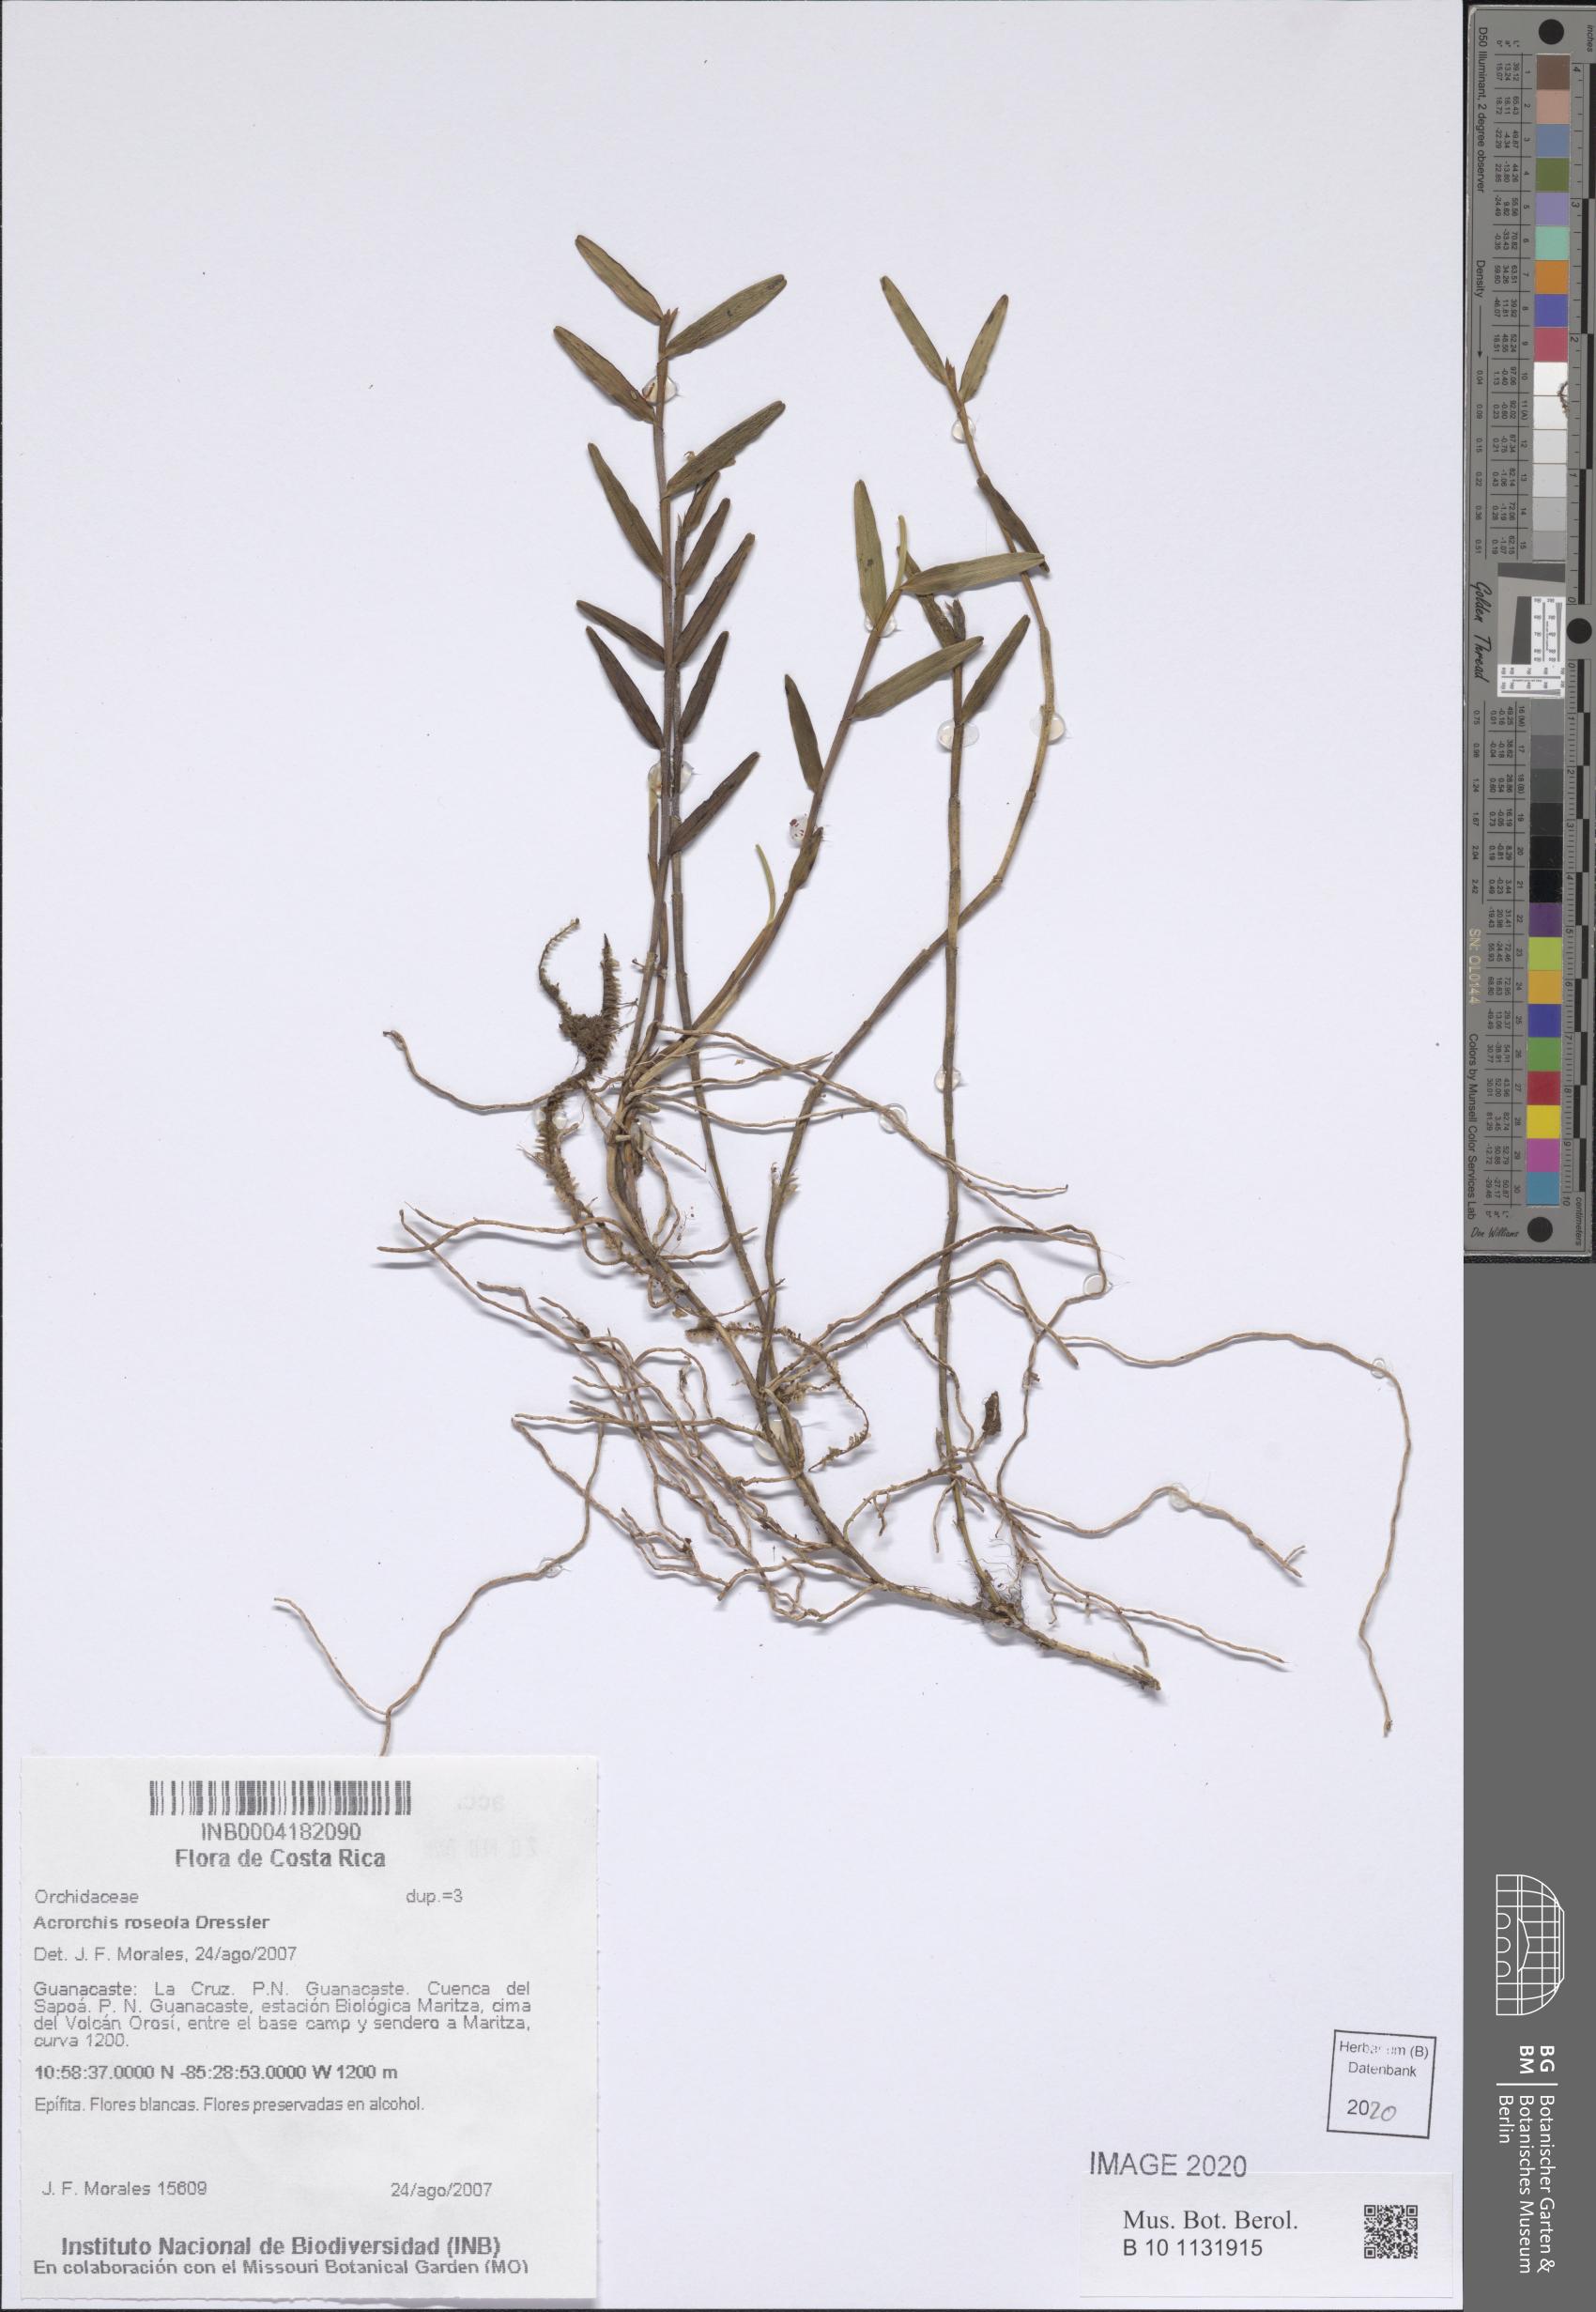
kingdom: Plantae
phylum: Tracheophyta
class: Liliopsida
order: Asparagales
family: Orchidaceae
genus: Acrorchis
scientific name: Acrorchis roseola
